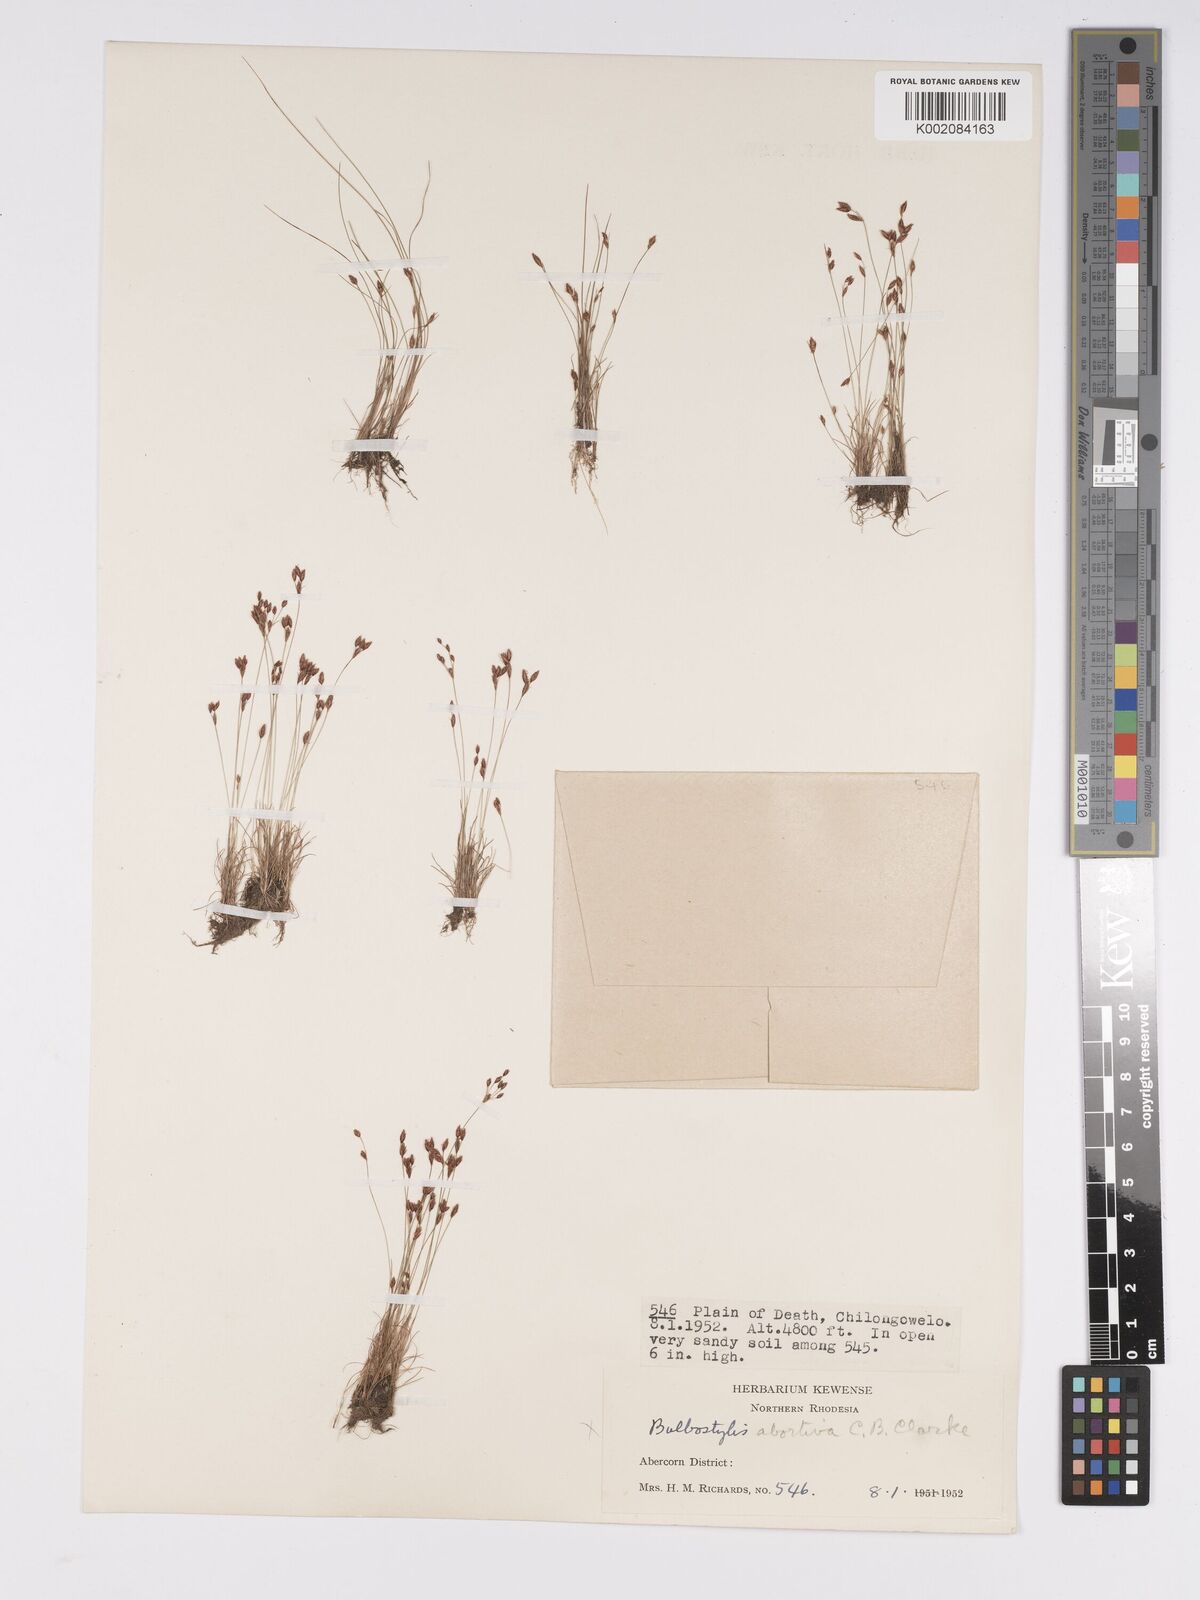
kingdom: Plantae
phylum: Tracheophyta
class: Liliopsida
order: Poales
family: Cyperaceae
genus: Bulbostylis
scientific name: Bulbostylis
